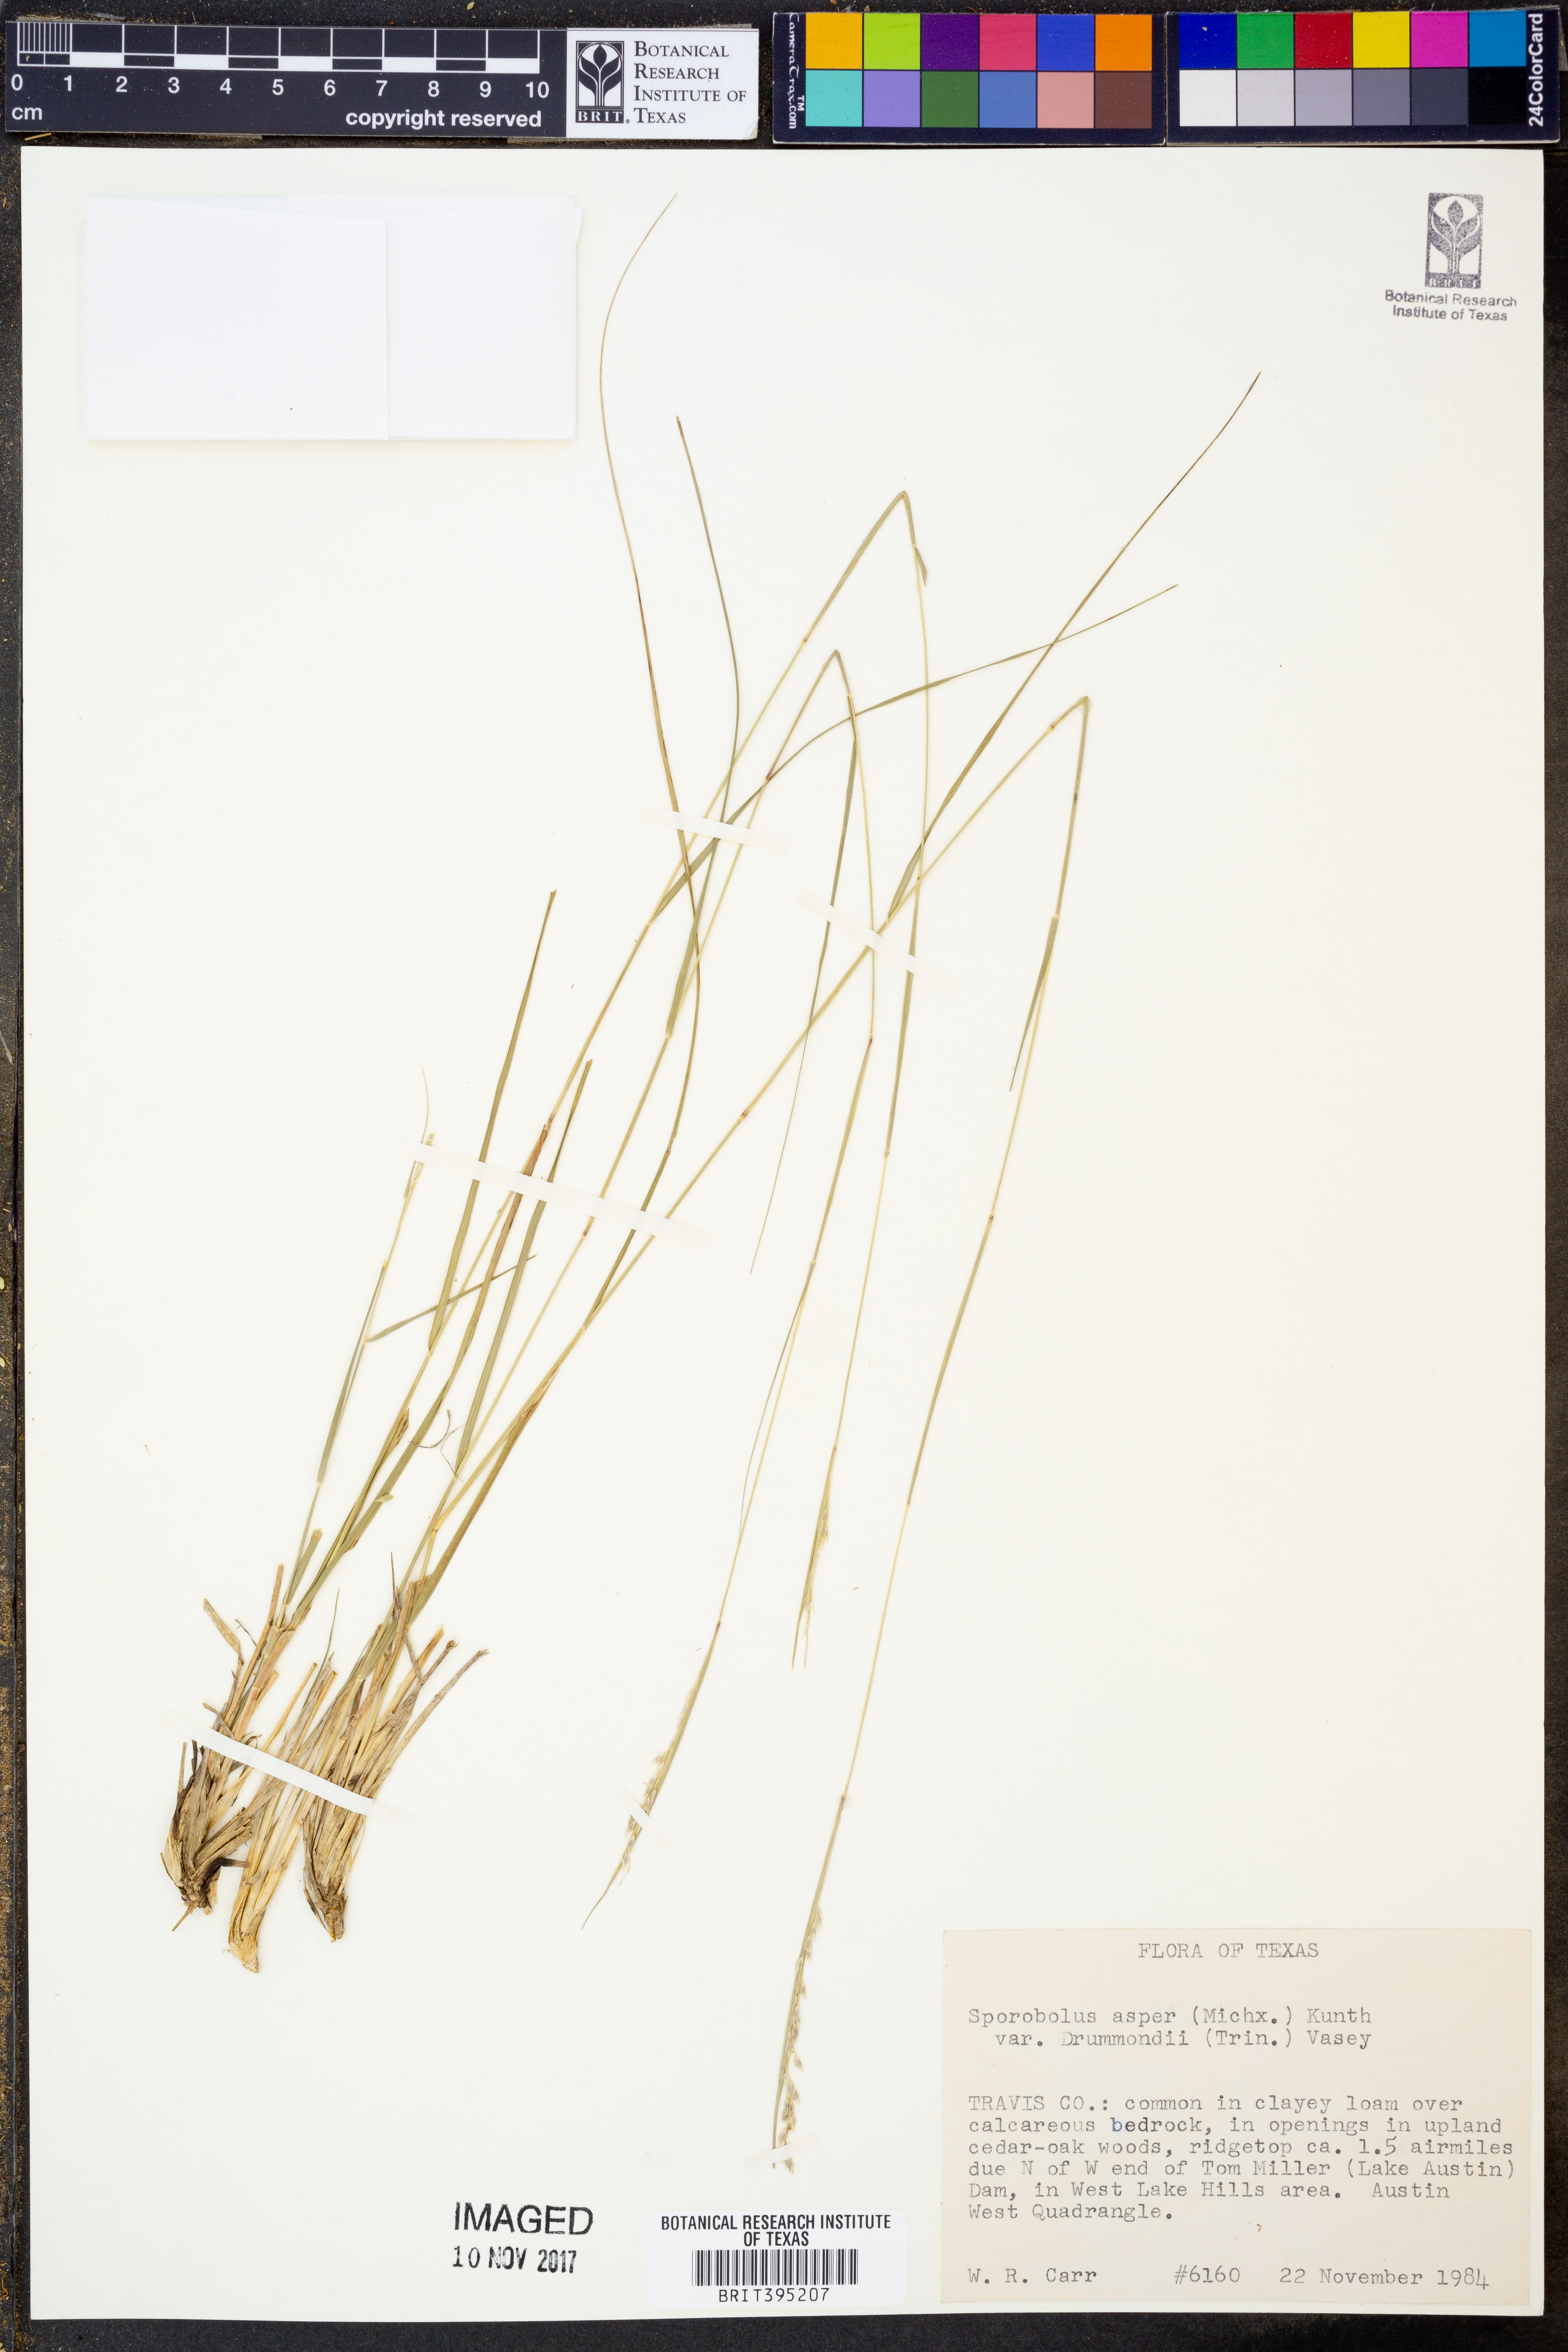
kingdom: Plantae
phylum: Tracheophyta
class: Liliopsida
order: Poales
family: Poaceae
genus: Sporobolus
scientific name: Sporobolus compositus
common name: Rough dropseed
